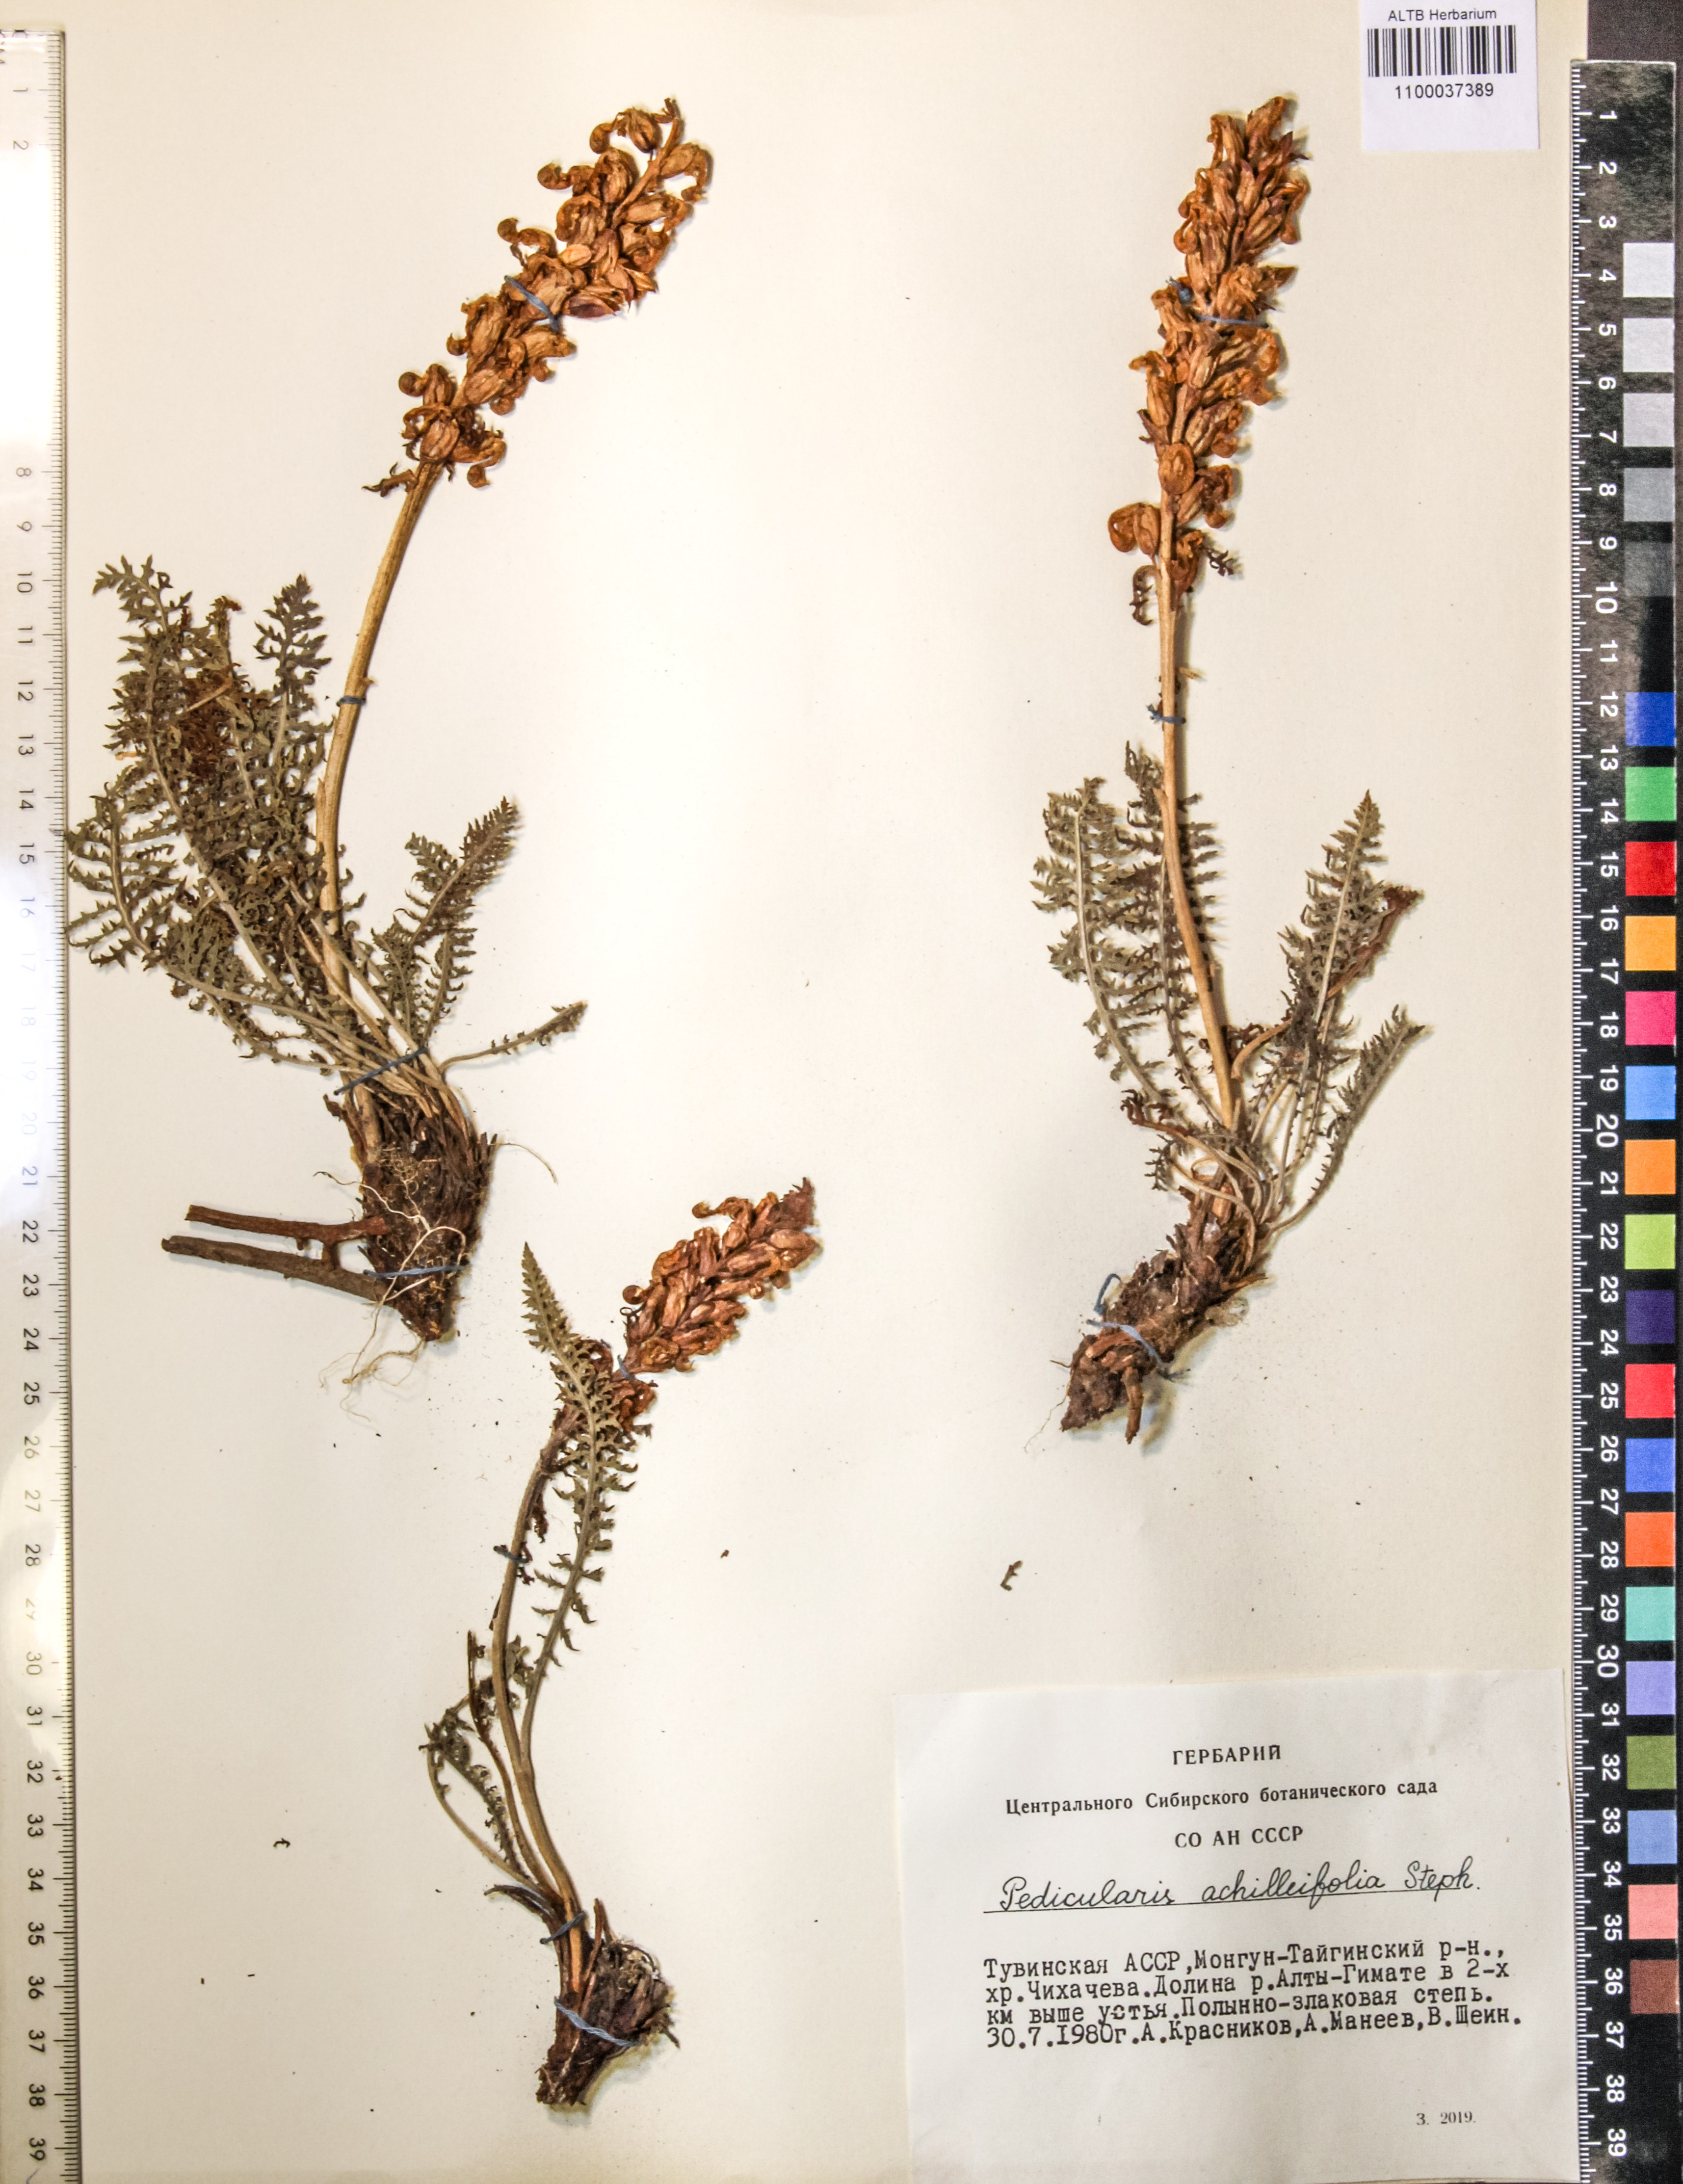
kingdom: Plantae
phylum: Tracheophyta
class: Magnoliopsida
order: Lamiales
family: Orobanchaceae
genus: Pedicularis
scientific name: Pedicularis achilleifolia
